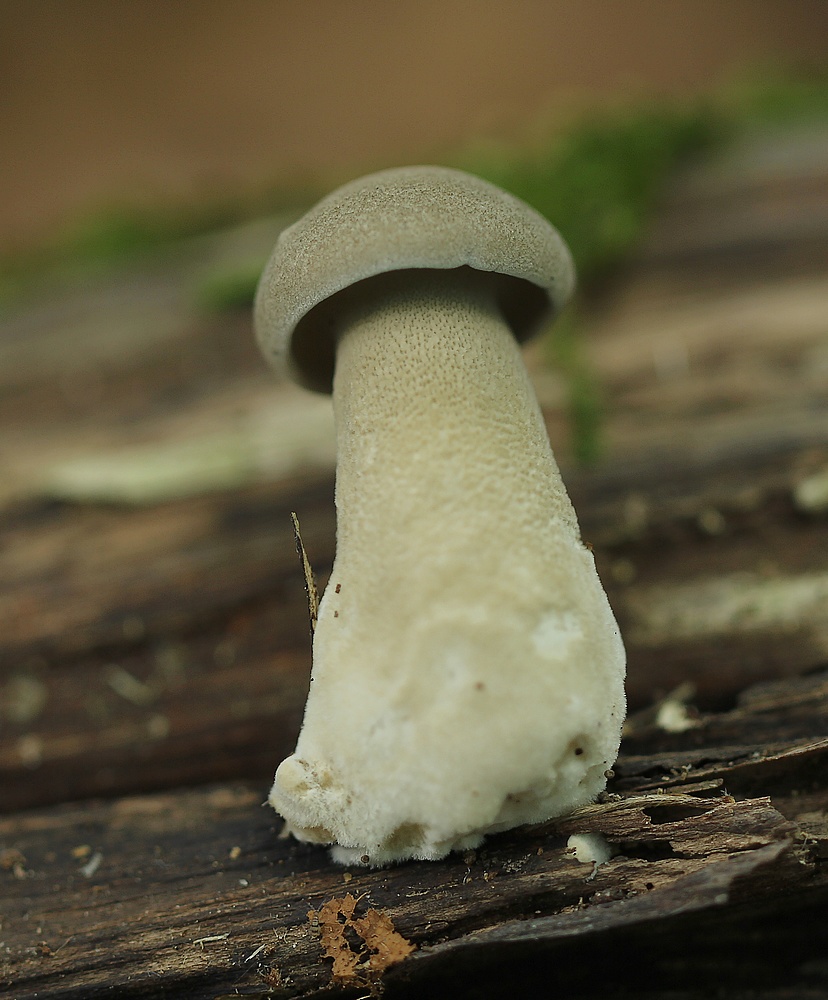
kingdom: Fungi
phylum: Basidiomycota
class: Agaricomycetes
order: Polyporales
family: Polyporaceae
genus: Lentinus
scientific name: Lentinus substrictus
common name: forårs-stilkporesvamp
